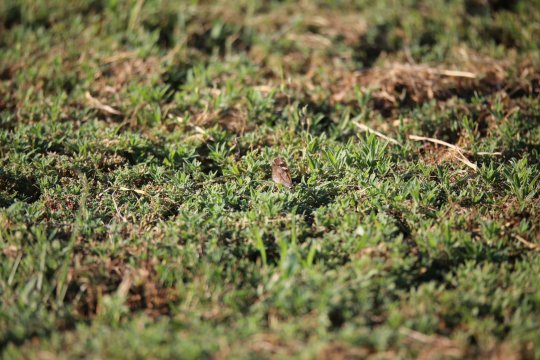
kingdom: Animalia
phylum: Arthropoda
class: Insecta
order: Lepidoptera
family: Nymphalidae
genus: Libytheana
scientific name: Libytheana carinenta
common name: American Snout
